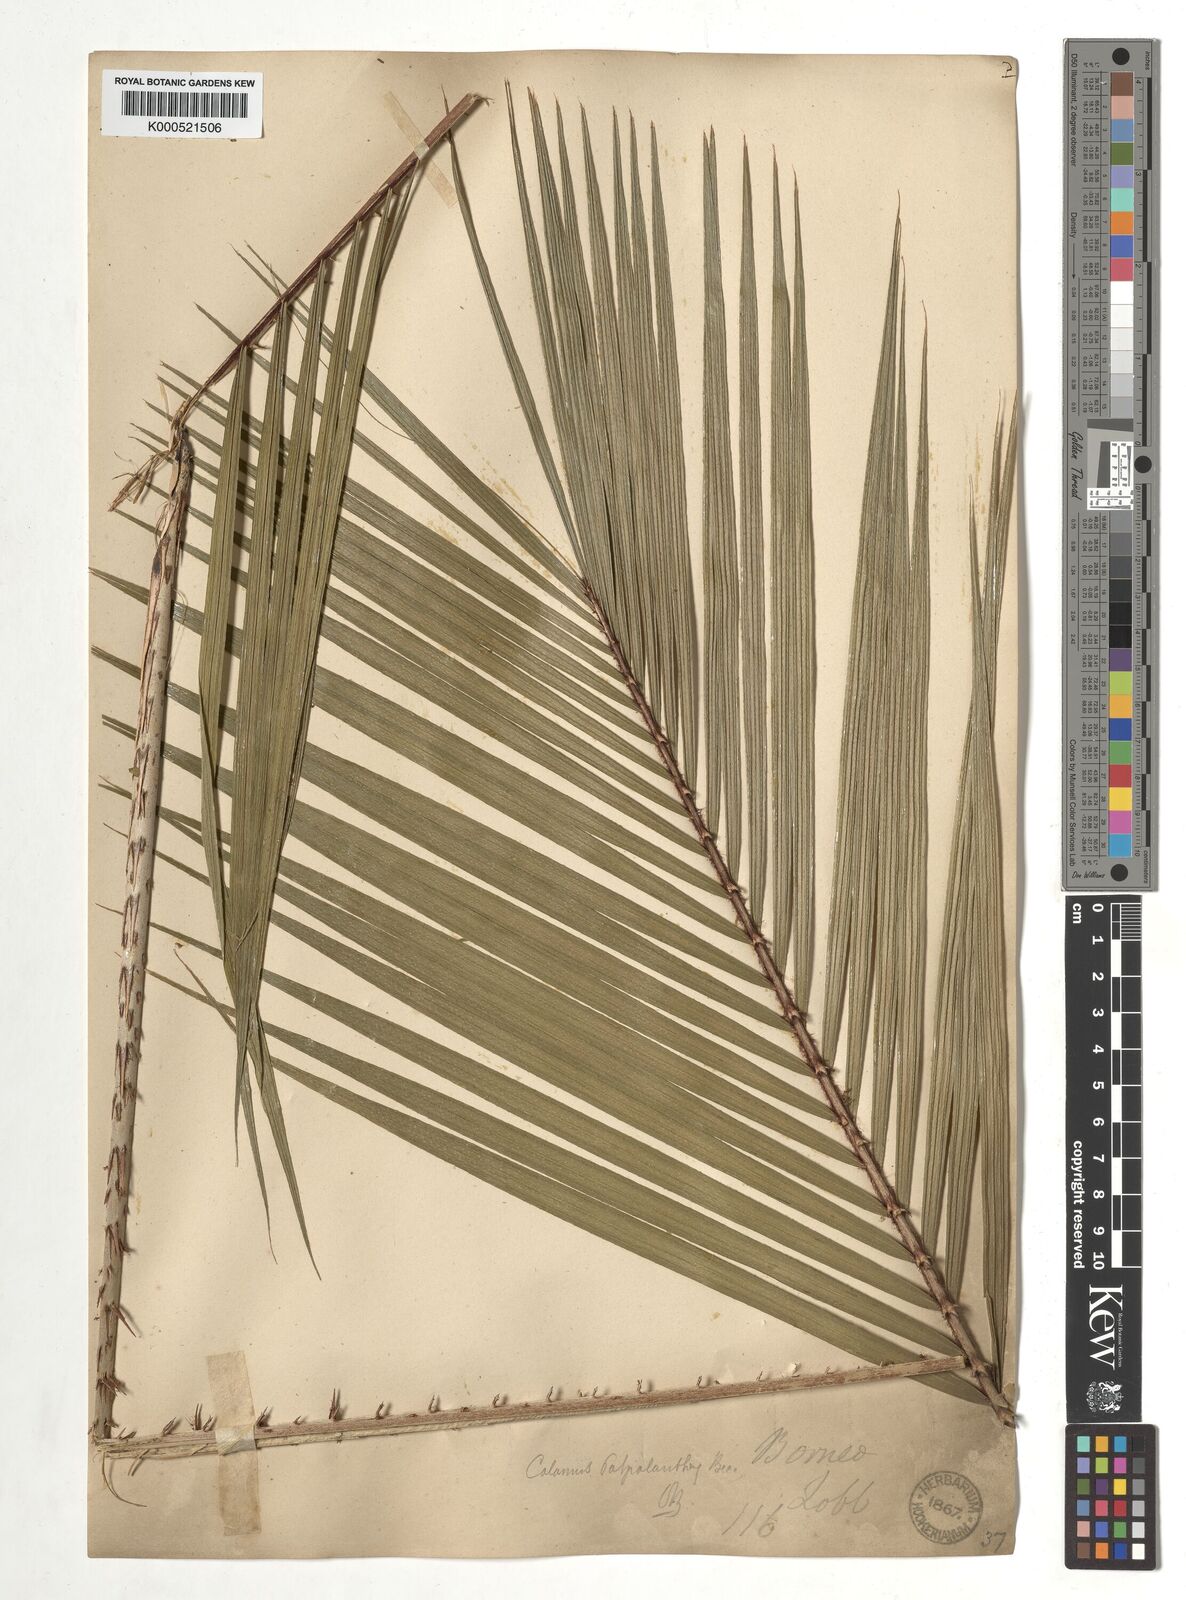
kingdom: Plantae
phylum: Tracheophyta
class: Liliopsida
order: Arecales
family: Arecaceae
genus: Calamus
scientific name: Calamus paspalanthus
